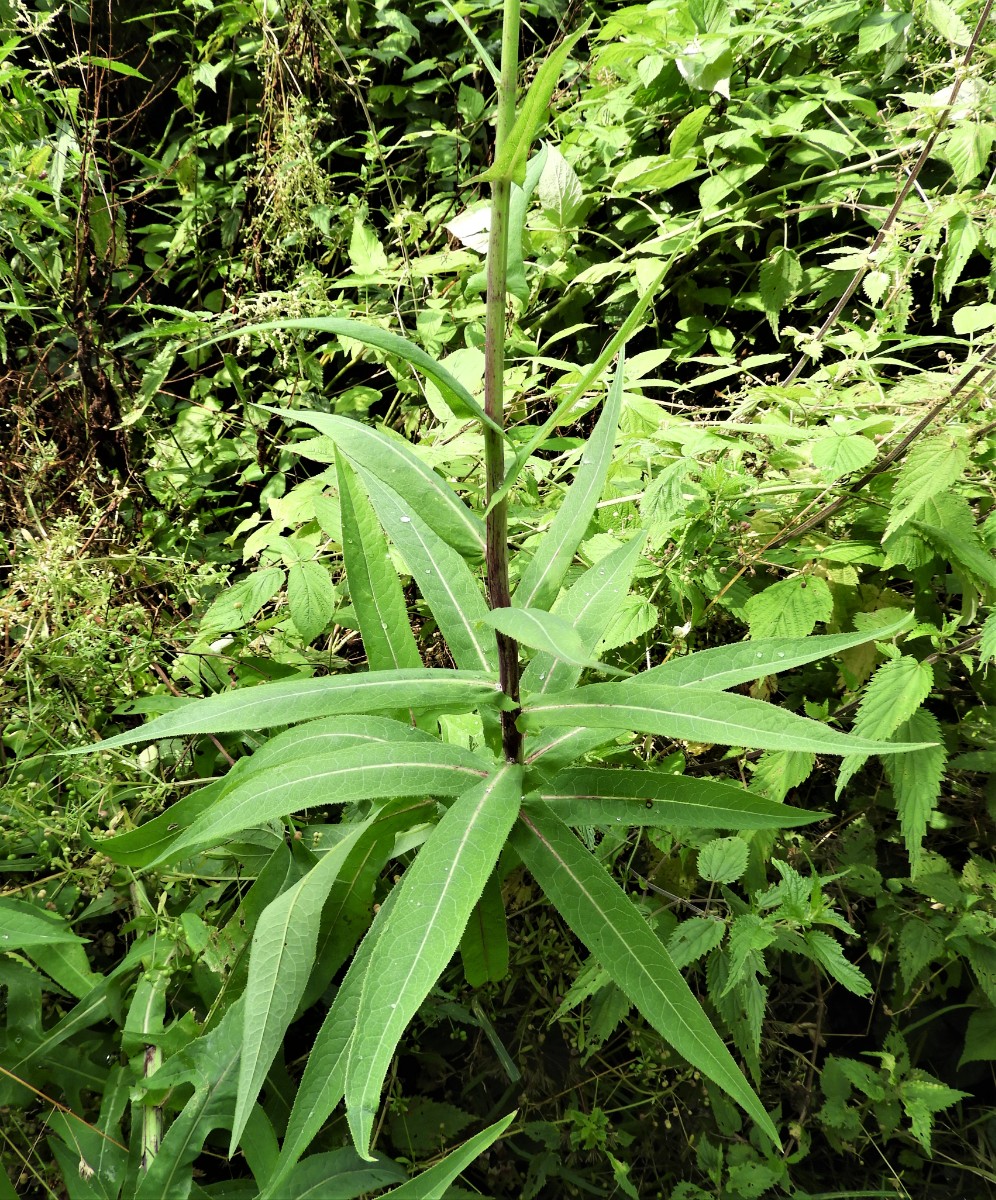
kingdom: Fungi
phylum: Basidiomycota
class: Pucciniomycetes
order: Pucciniales
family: Pucciniaceae
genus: Peristemma
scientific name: Peristemma pseudosphaeria
